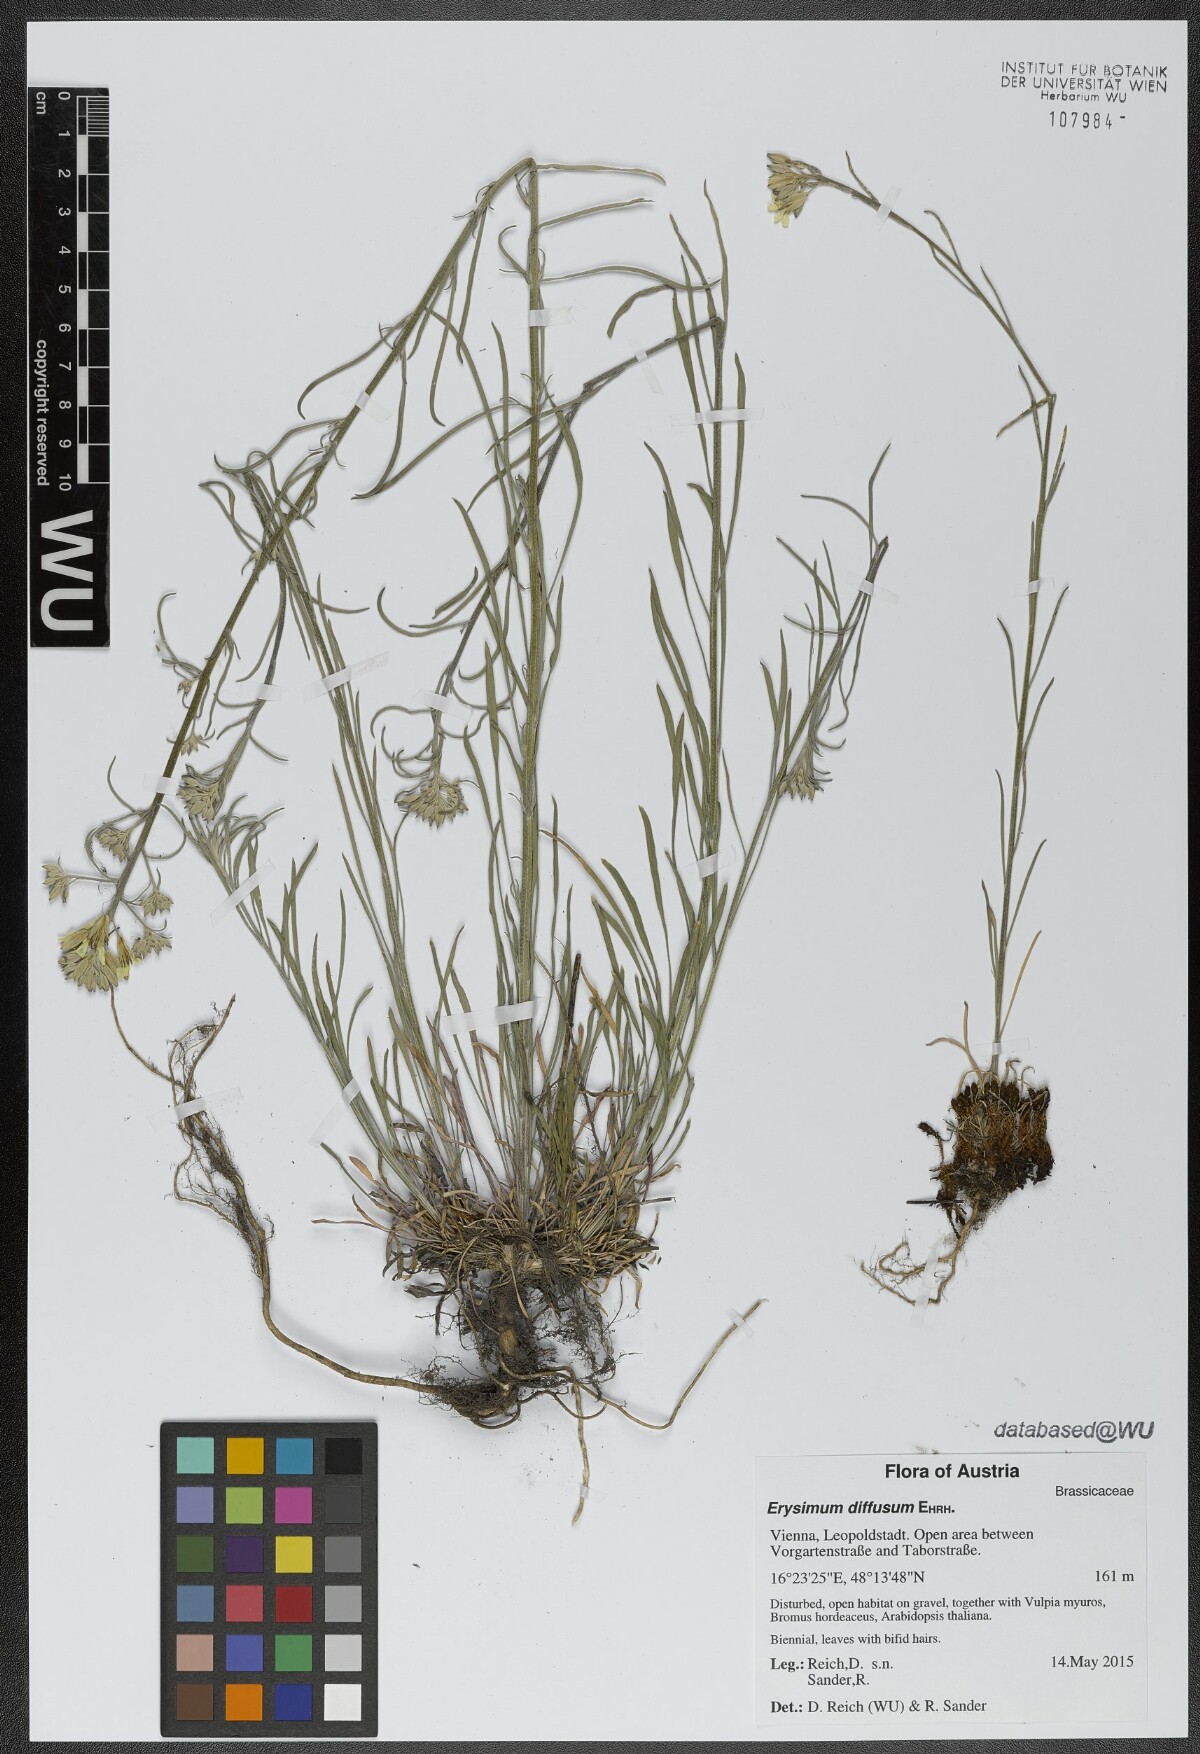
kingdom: Plantae
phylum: Tracheophyta
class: Magnoliopsida
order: Brassicales
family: Brassicaceae
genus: Erysimum
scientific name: Erysimum diffusum
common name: Diffuse wallflower
